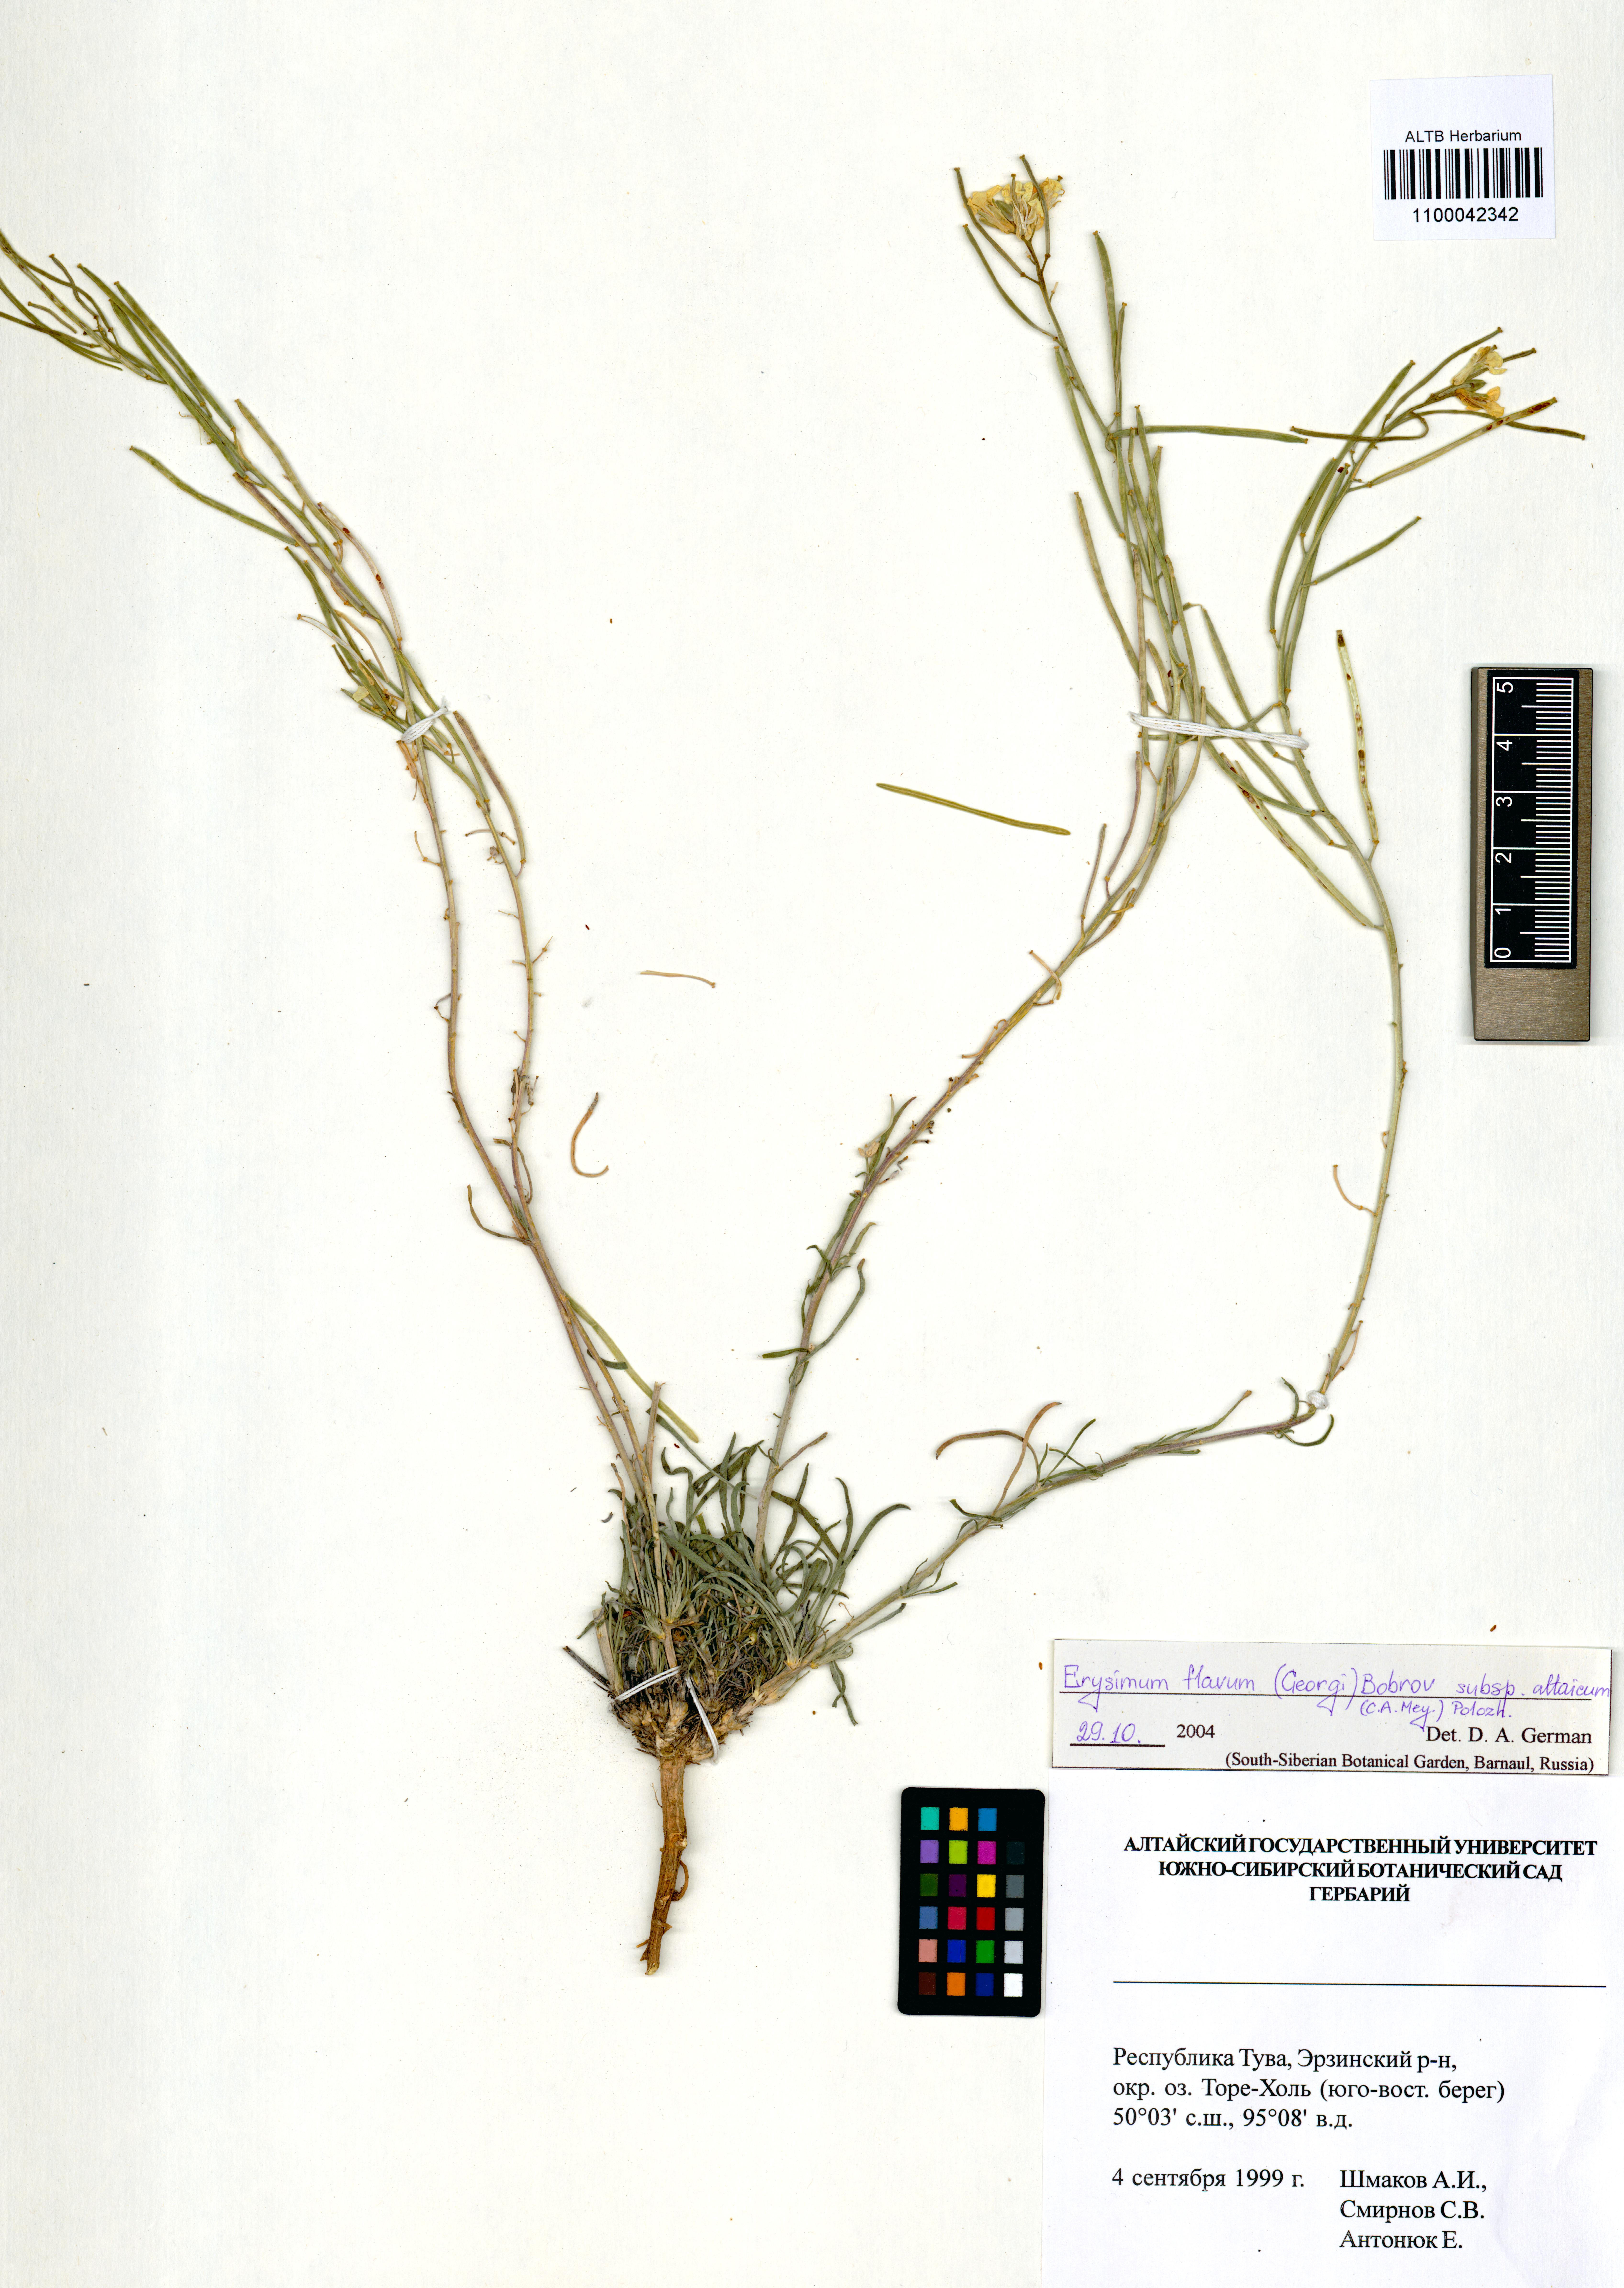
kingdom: Plantae
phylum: Tracheophyta
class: Magnoliopsida
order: Brassicales
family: Brassicaceae
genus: Erysimum
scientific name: Erysimum flavum
